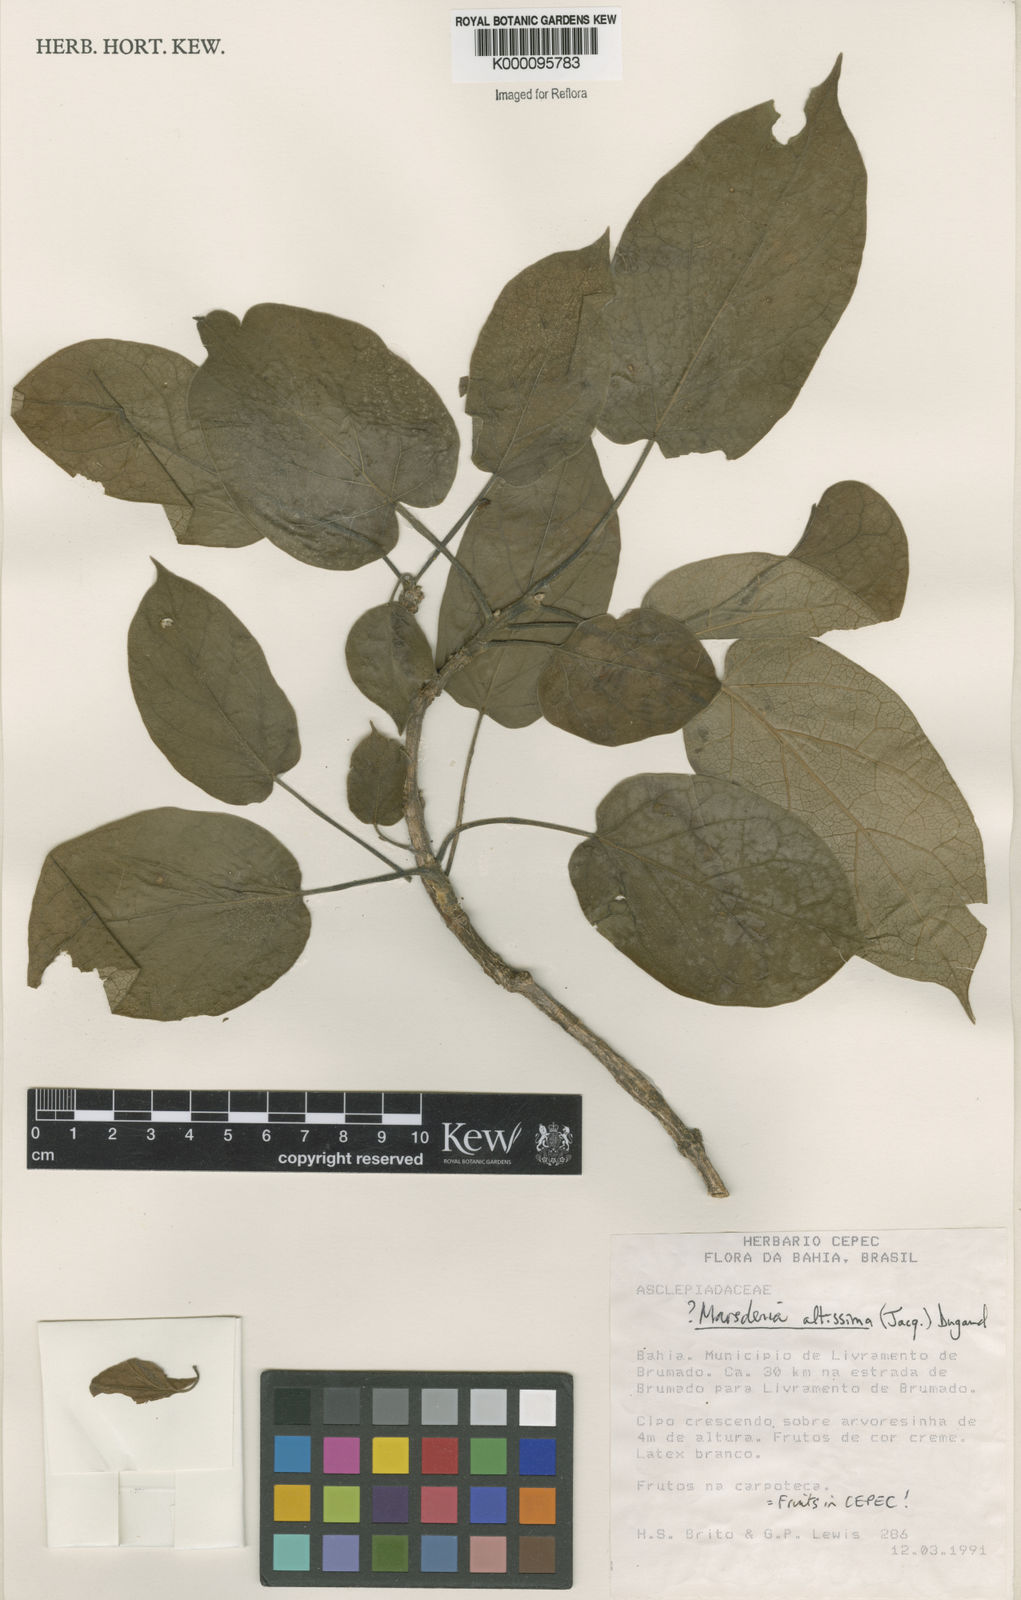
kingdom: Plantae
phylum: Tracheophyta
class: Magnoliopsida
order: Gentianales
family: Apocynaceae
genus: Ruehssia
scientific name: Ruehssia altissima
